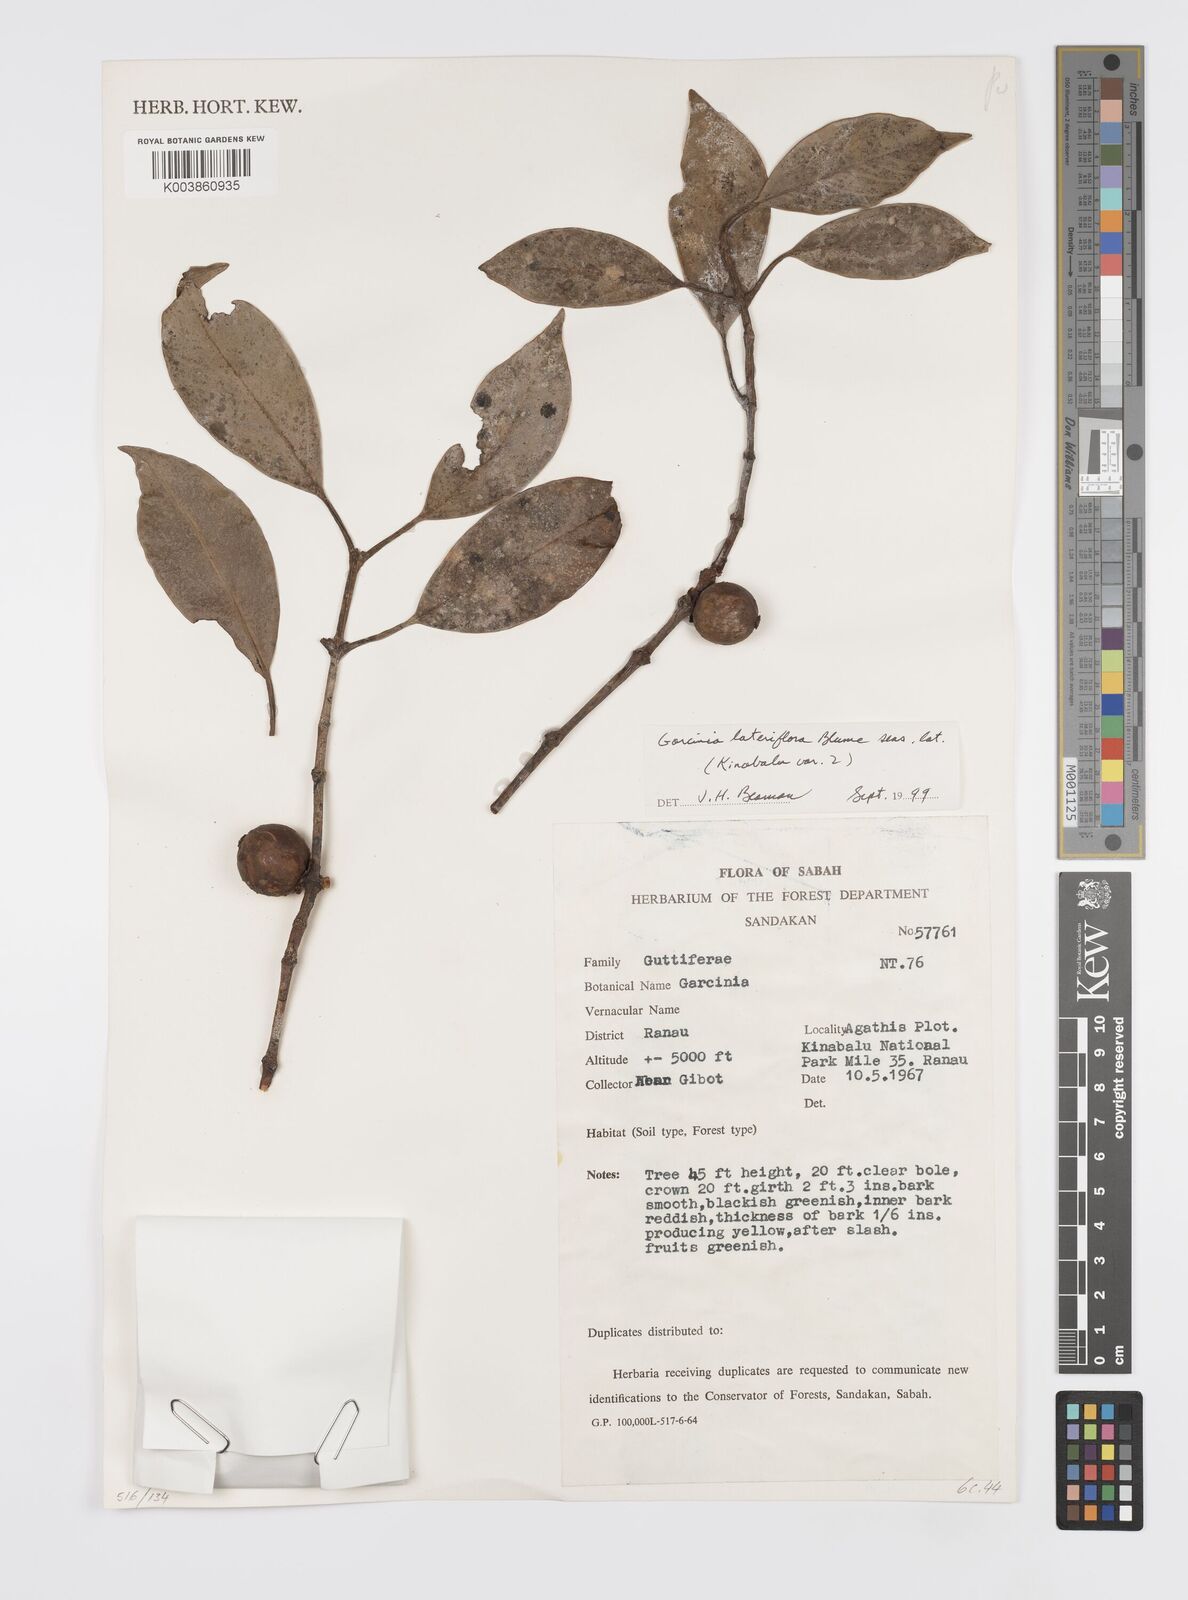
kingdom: Plantae
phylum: Tracheophyta
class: Magnoliopsida
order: Malpighiales
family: Clusiaceae
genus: Garcinia
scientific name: Garcinia lateriflora
